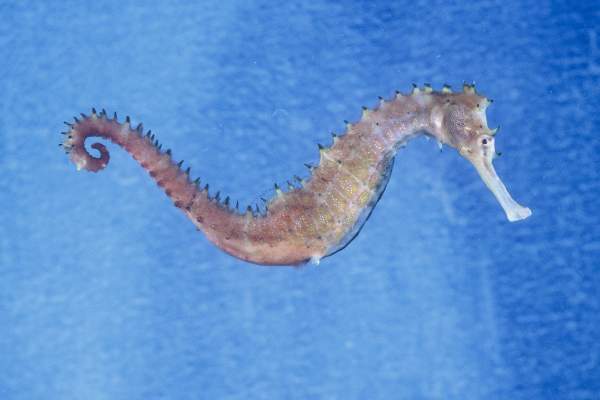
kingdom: Animalia
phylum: Chordata
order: Syngnathiformes
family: Syngnathidae
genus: Hippocampus
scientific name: Hippocampus histrix
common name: Longspine seahorse
